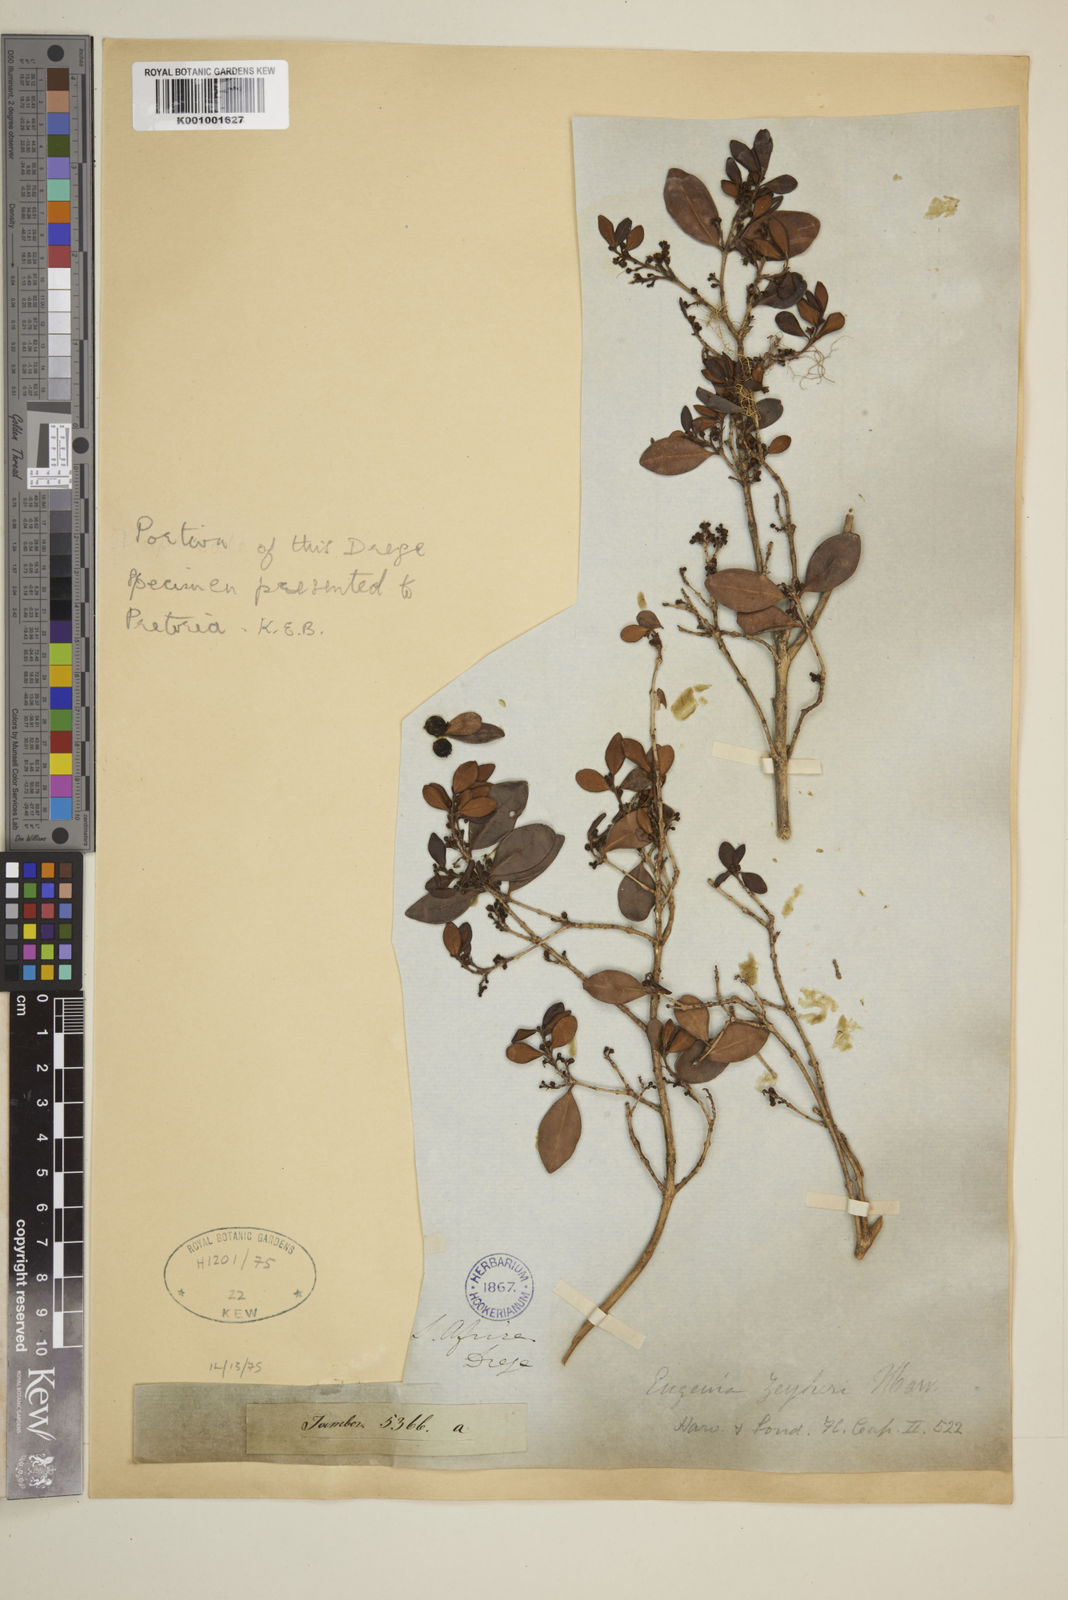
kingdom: Plantae
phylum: Tracheophyta
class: Magnoliopsida
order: Myrtales
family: Myrtaceae
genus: Eugenia
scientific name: Eugenia zeyheri
